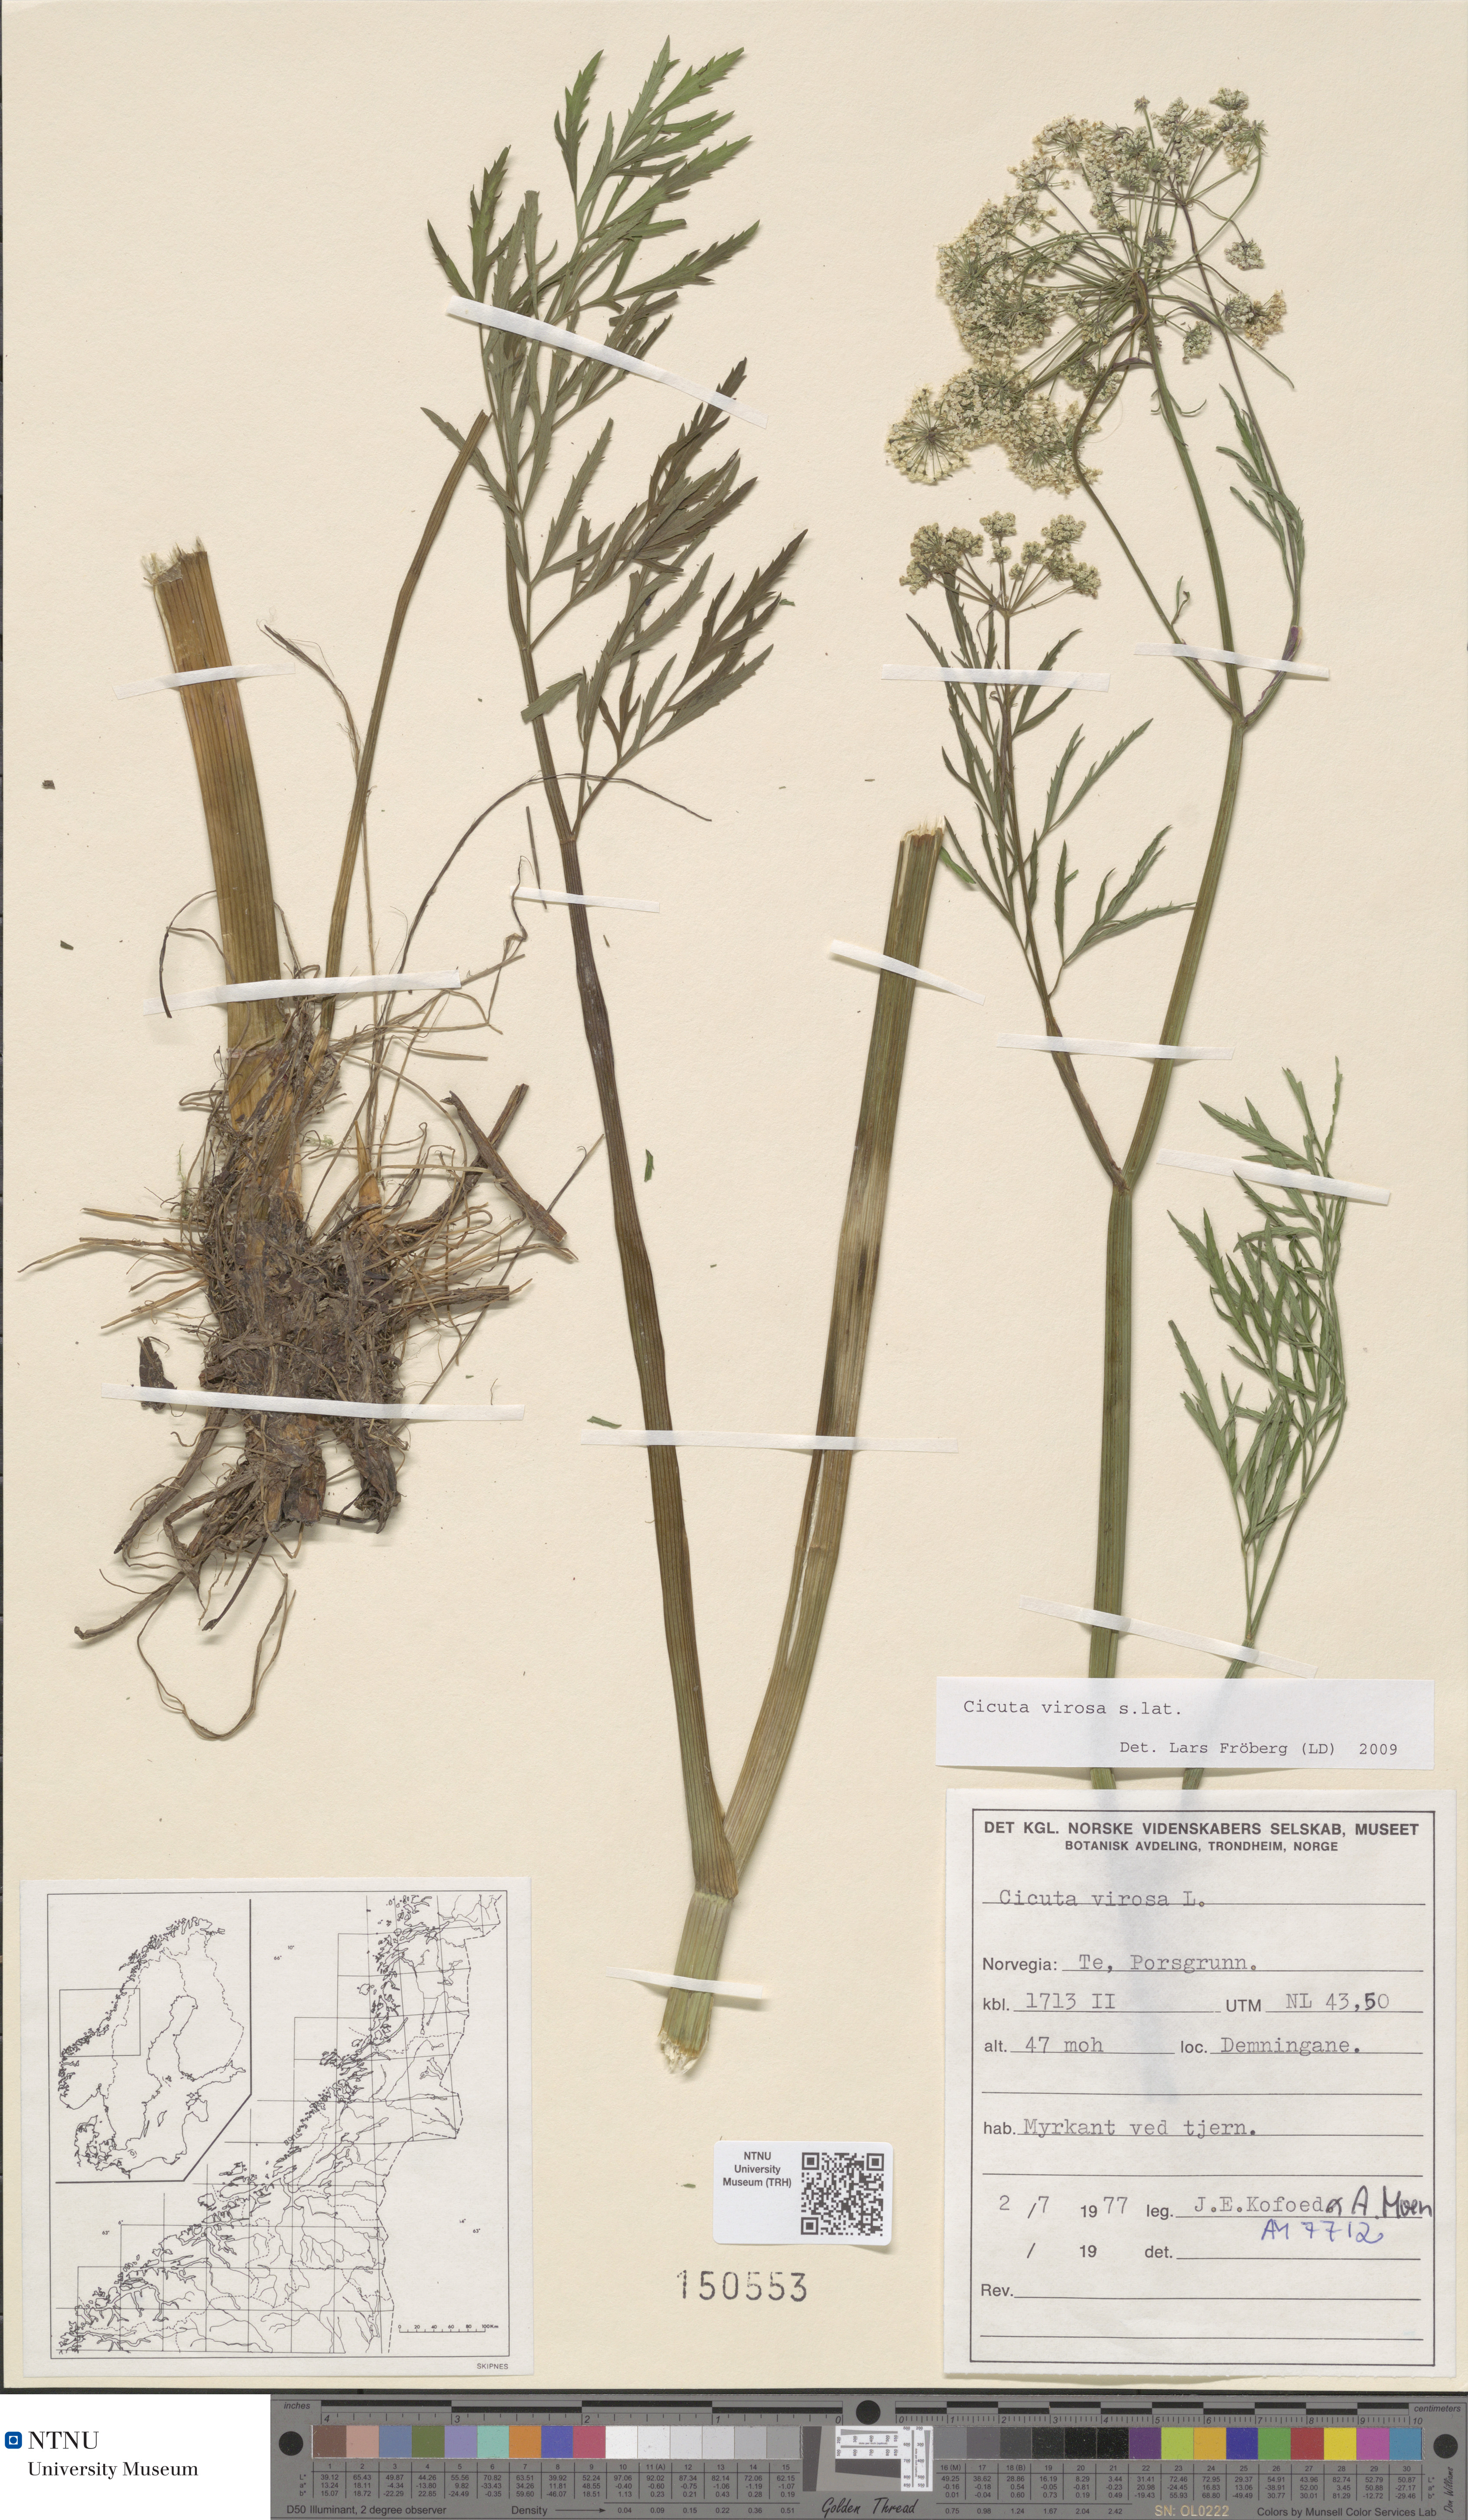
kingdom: Plantae
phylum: Tracheophyta
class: Magnoliopsida
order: Apiales
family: Apiaceae
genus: Cicuta
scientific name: Cicuta virosa
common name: Cowbane
